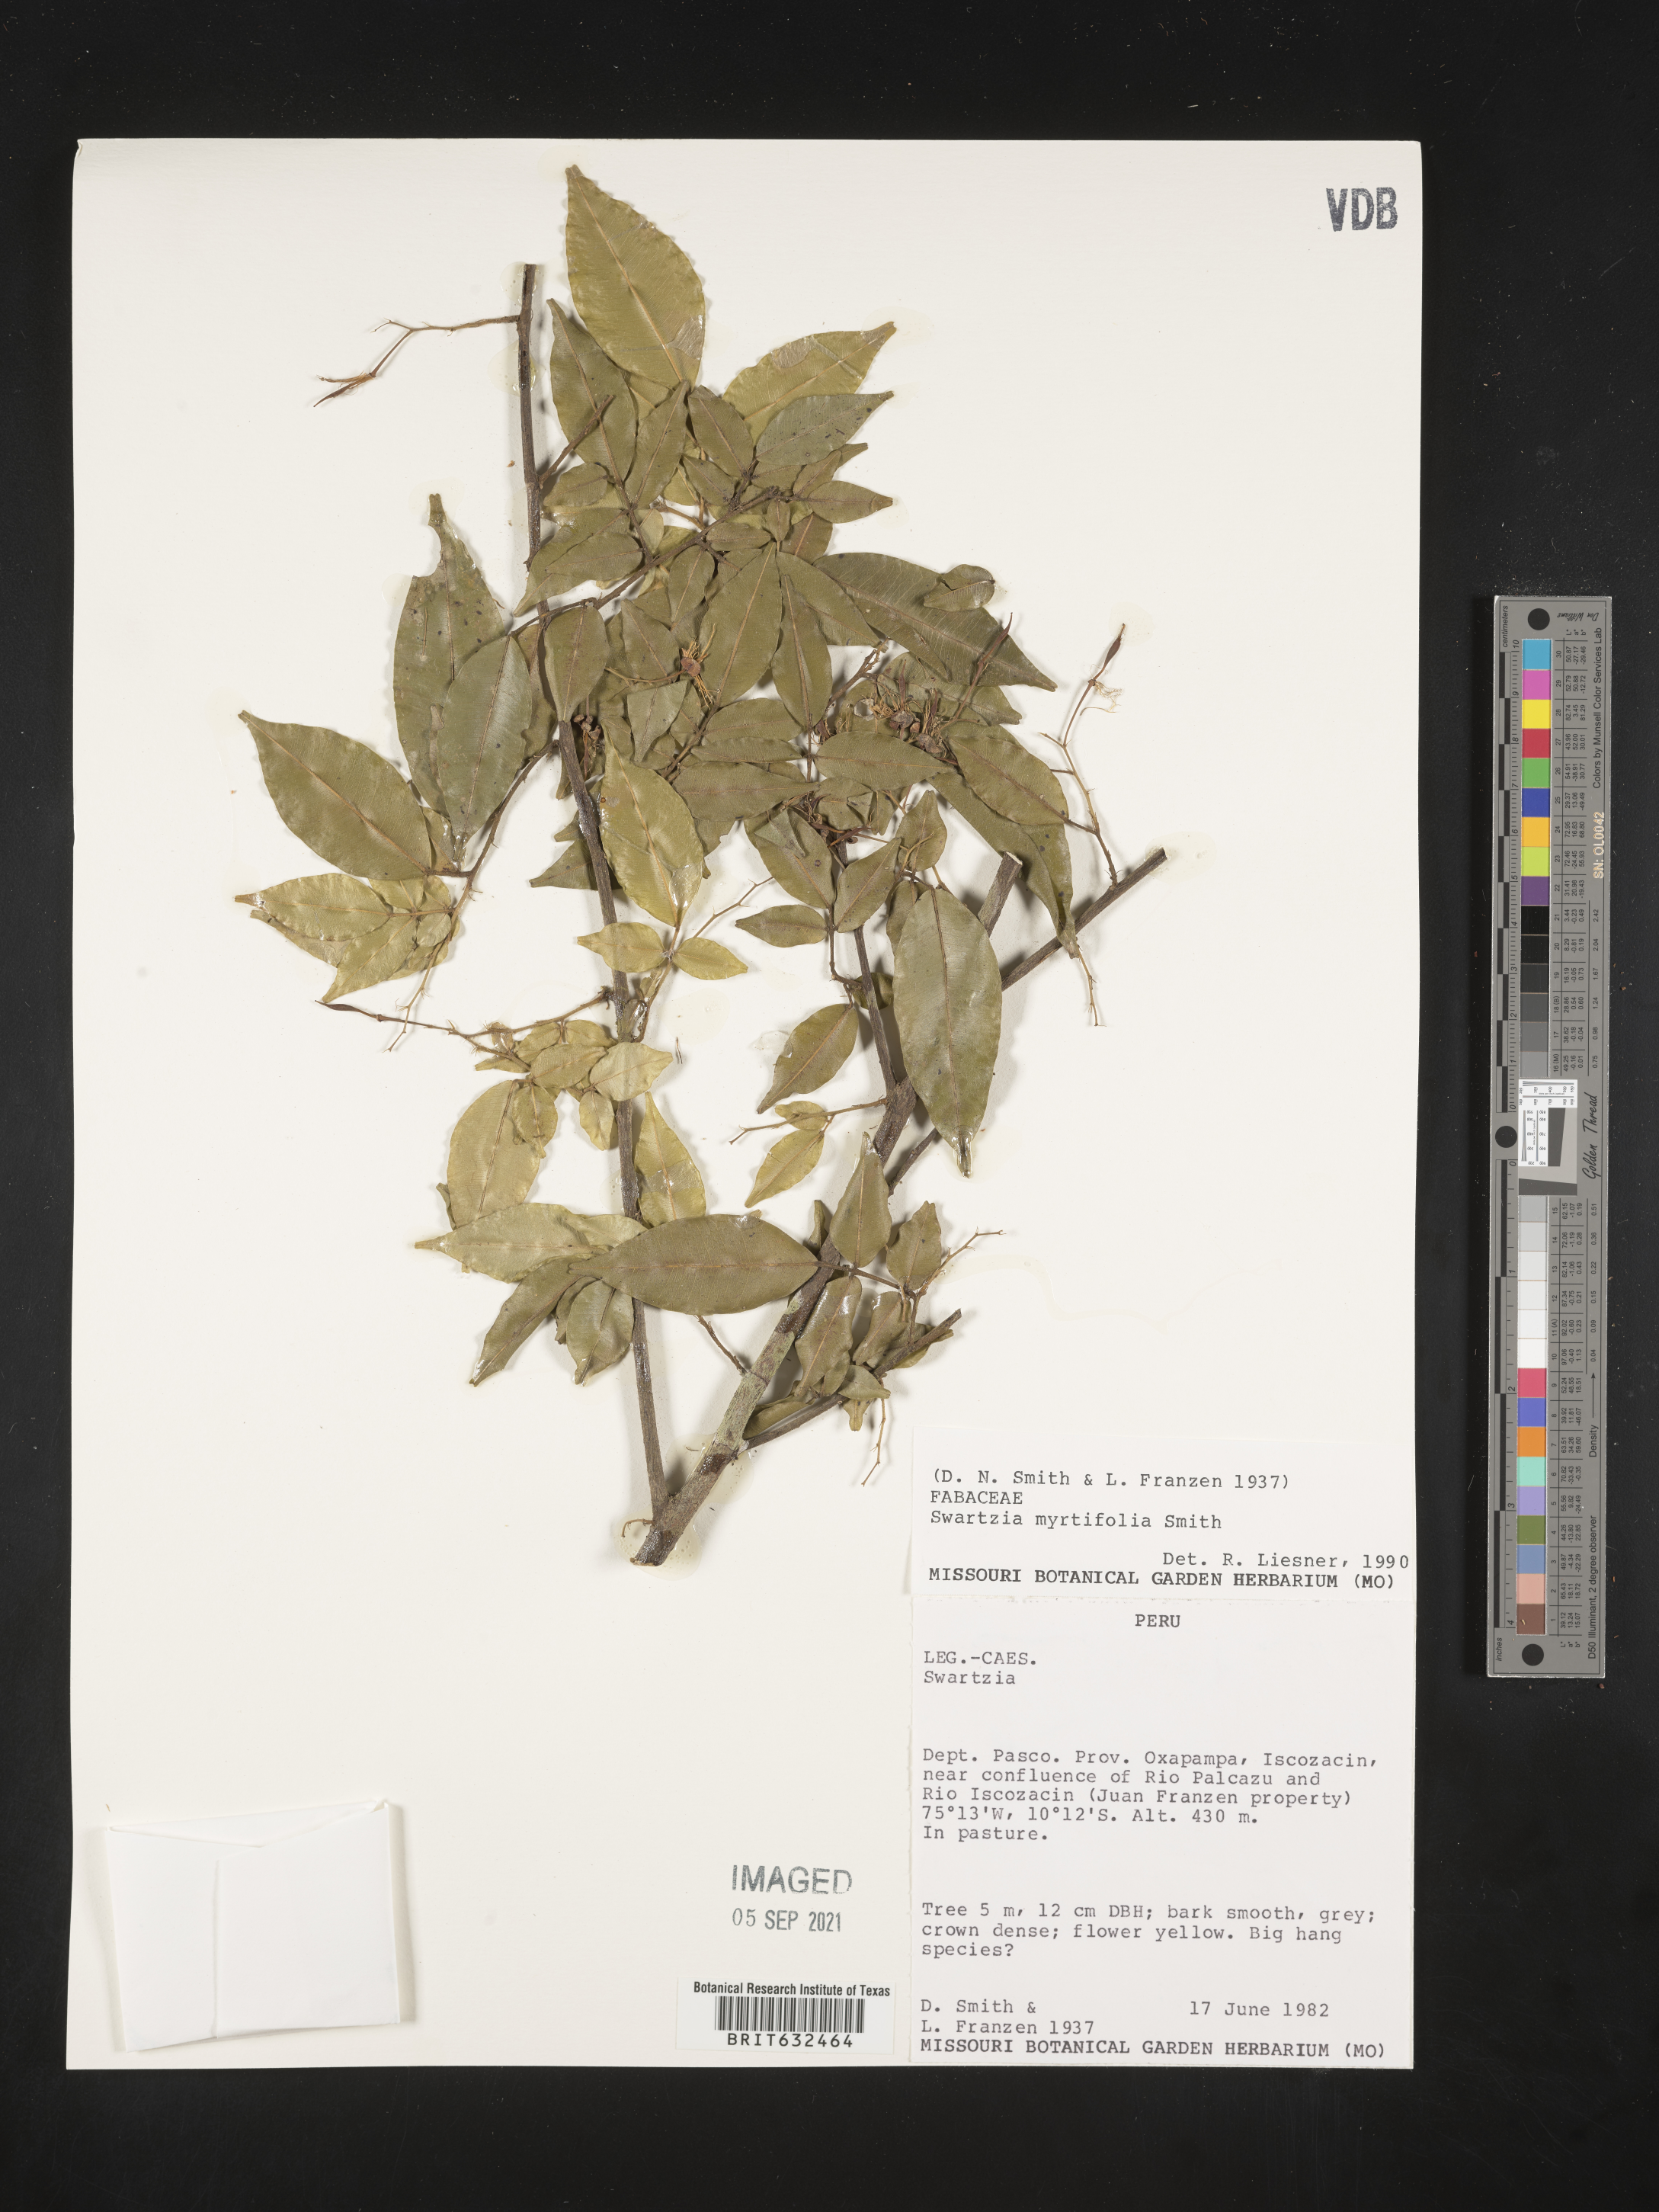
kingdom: Plantae
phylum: Tracheophyta
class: Magnoliopsida
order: Fabales
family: Fabaceae
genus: Swartzia
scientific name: Swartzia
